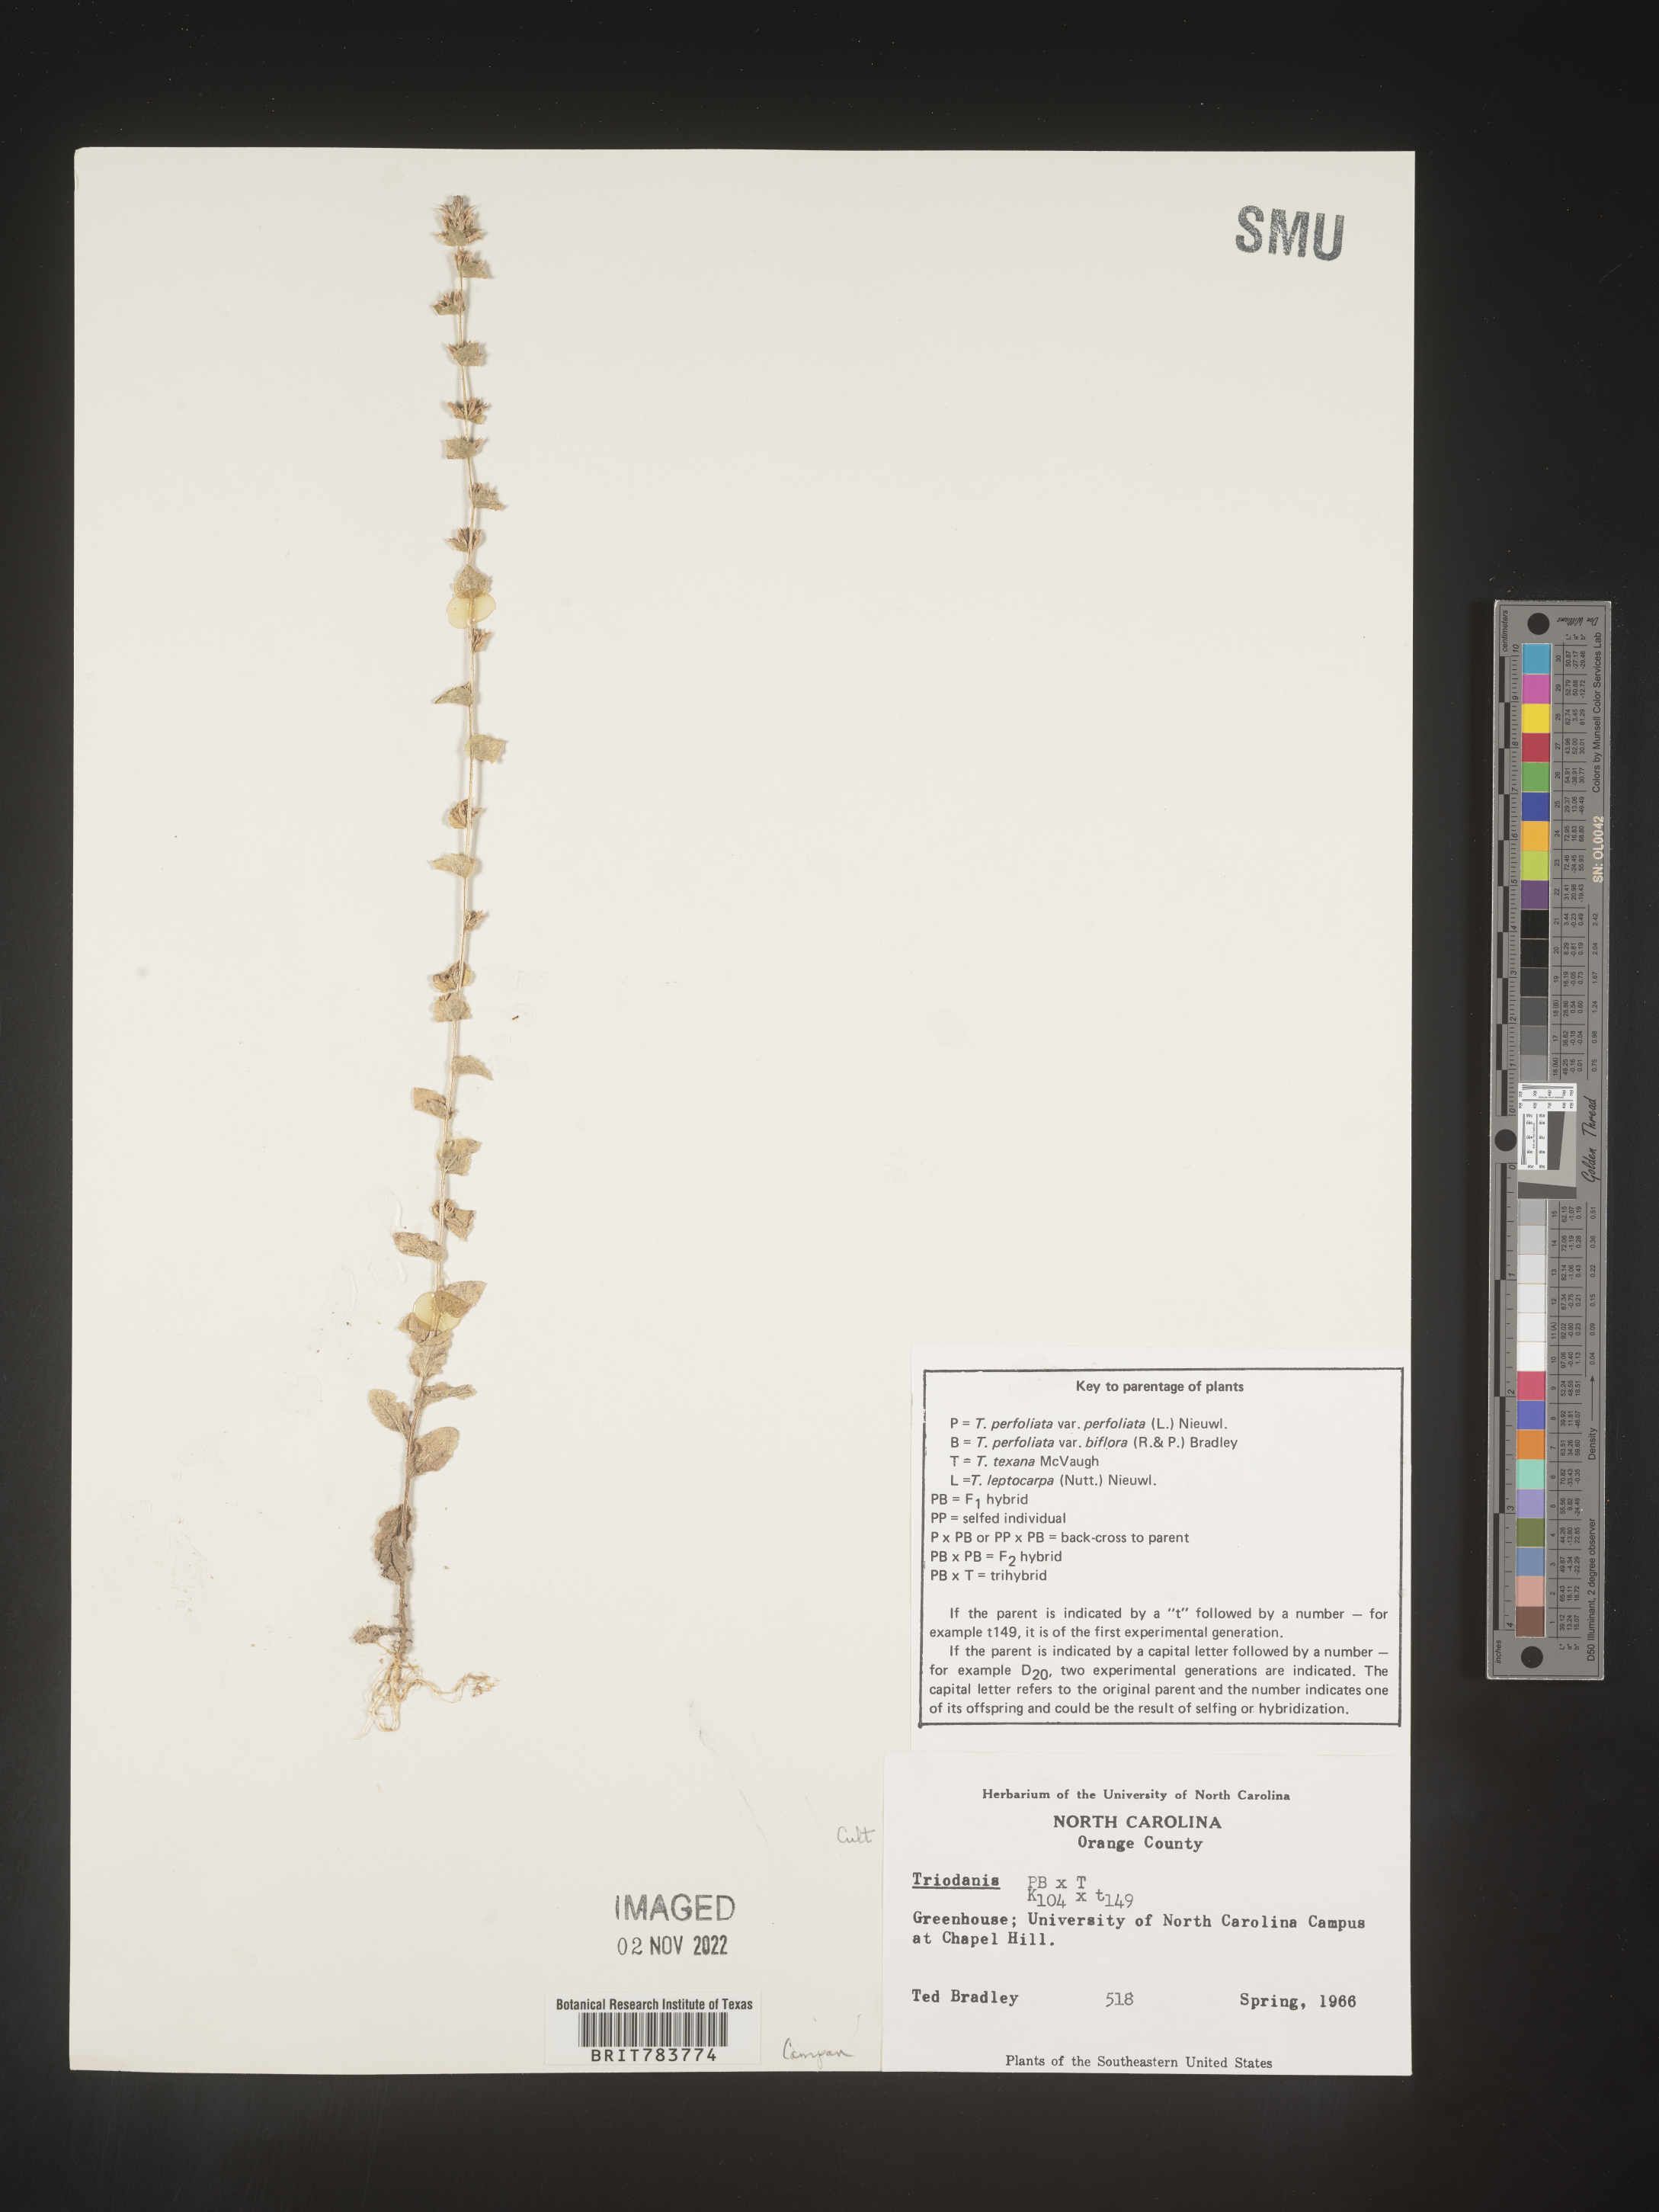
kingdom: Plantae
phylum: Tracheophyta
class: Magnoliopsida
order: Asterales
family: Campanulaceae
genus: Triodanis
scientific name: Triodanis
